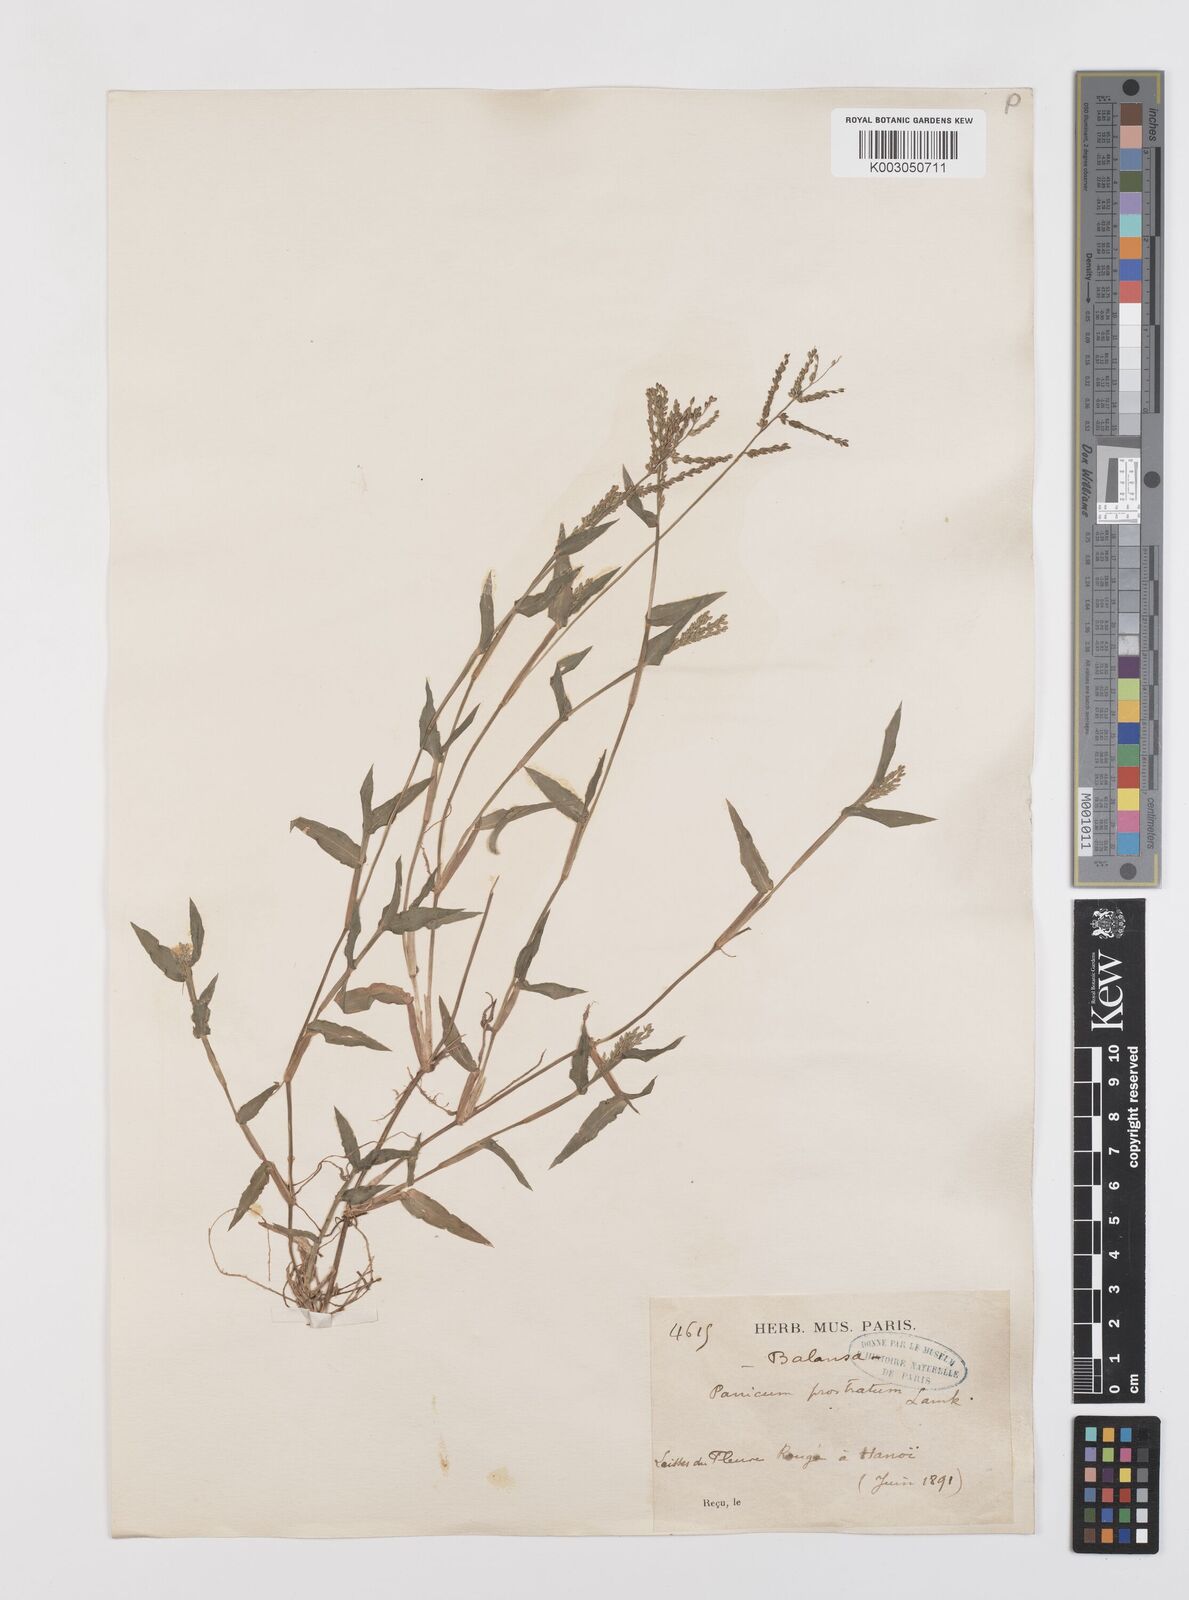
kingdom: Plantae
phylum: Tracheophyta
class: Liliopsida
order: Poales
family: Poaceae
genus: Urochloa
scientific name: Urochloa reptans
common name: Sprawling signalgrass
